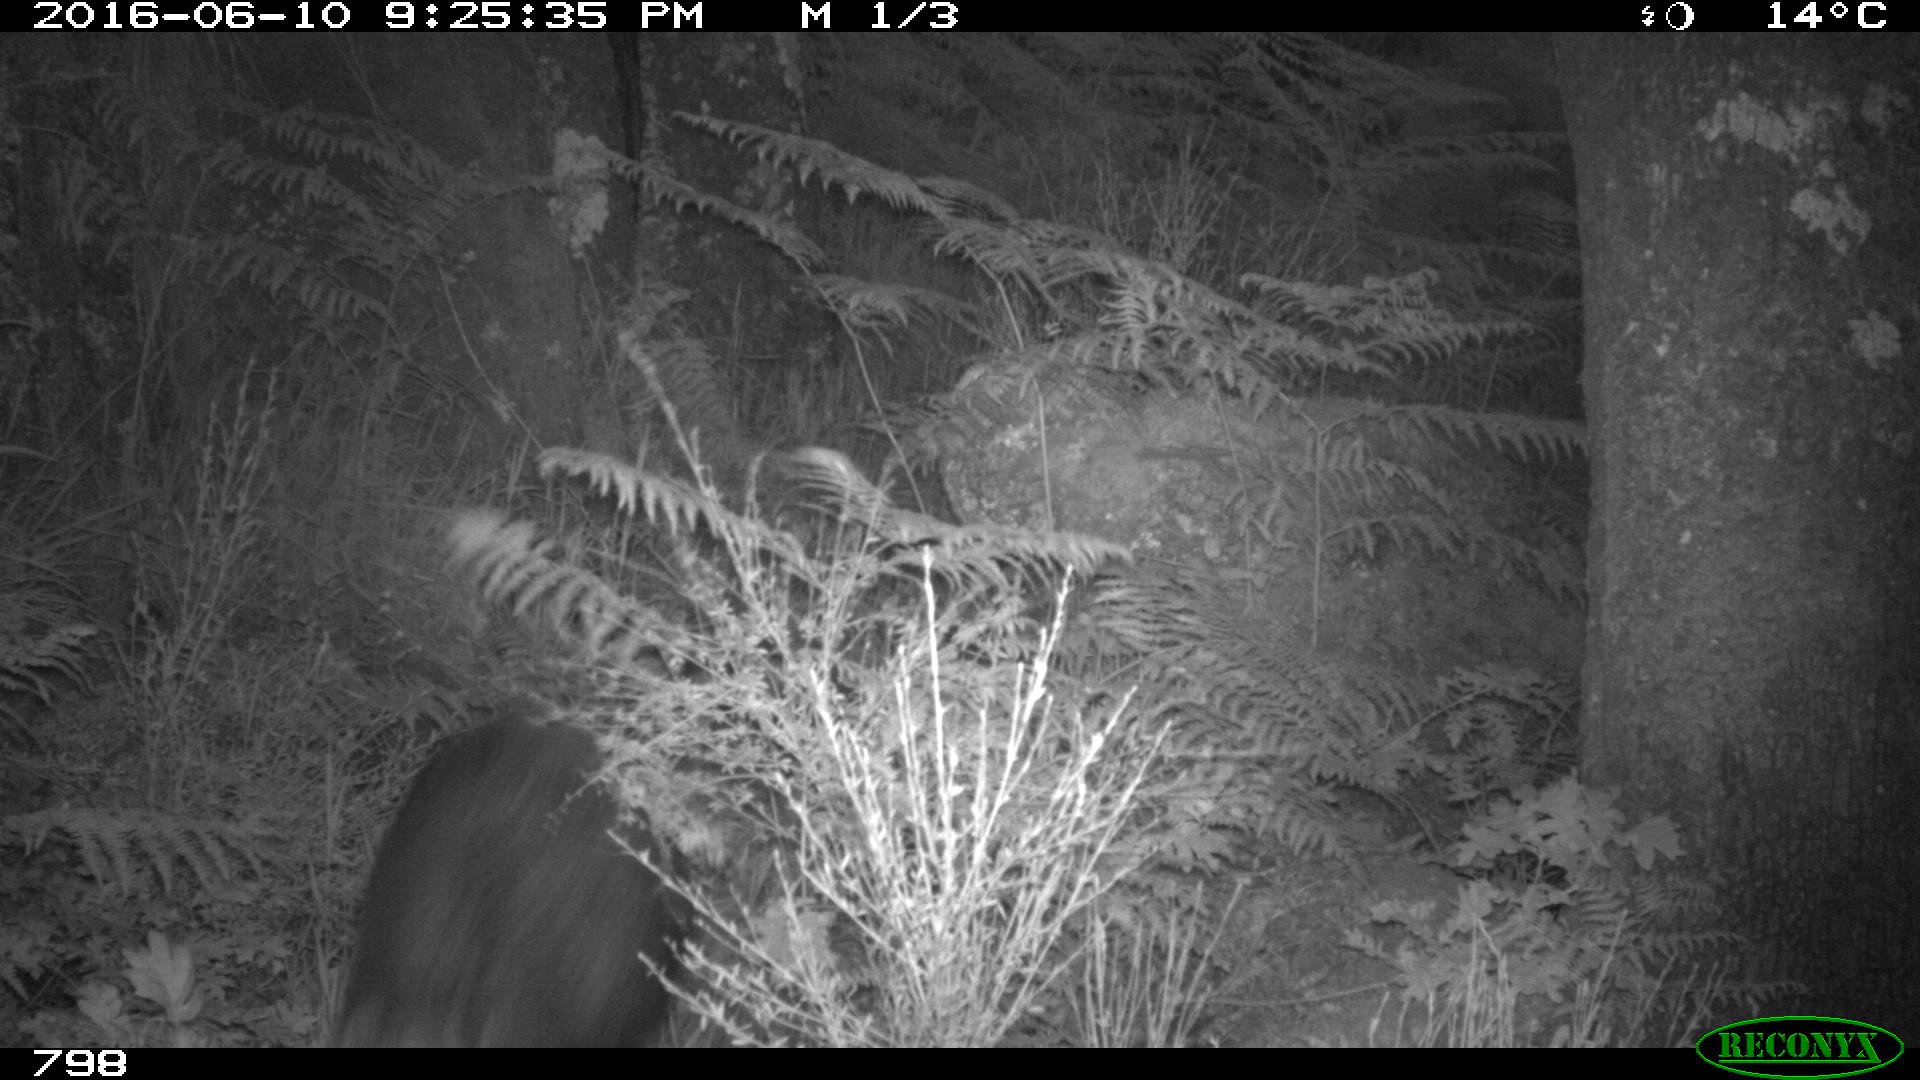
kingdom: Animalia
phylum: Chordata
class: Mammalia
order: Artiodactyla
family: Suidae
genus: Sus
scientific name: Sus scrofa
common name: Wild boar
